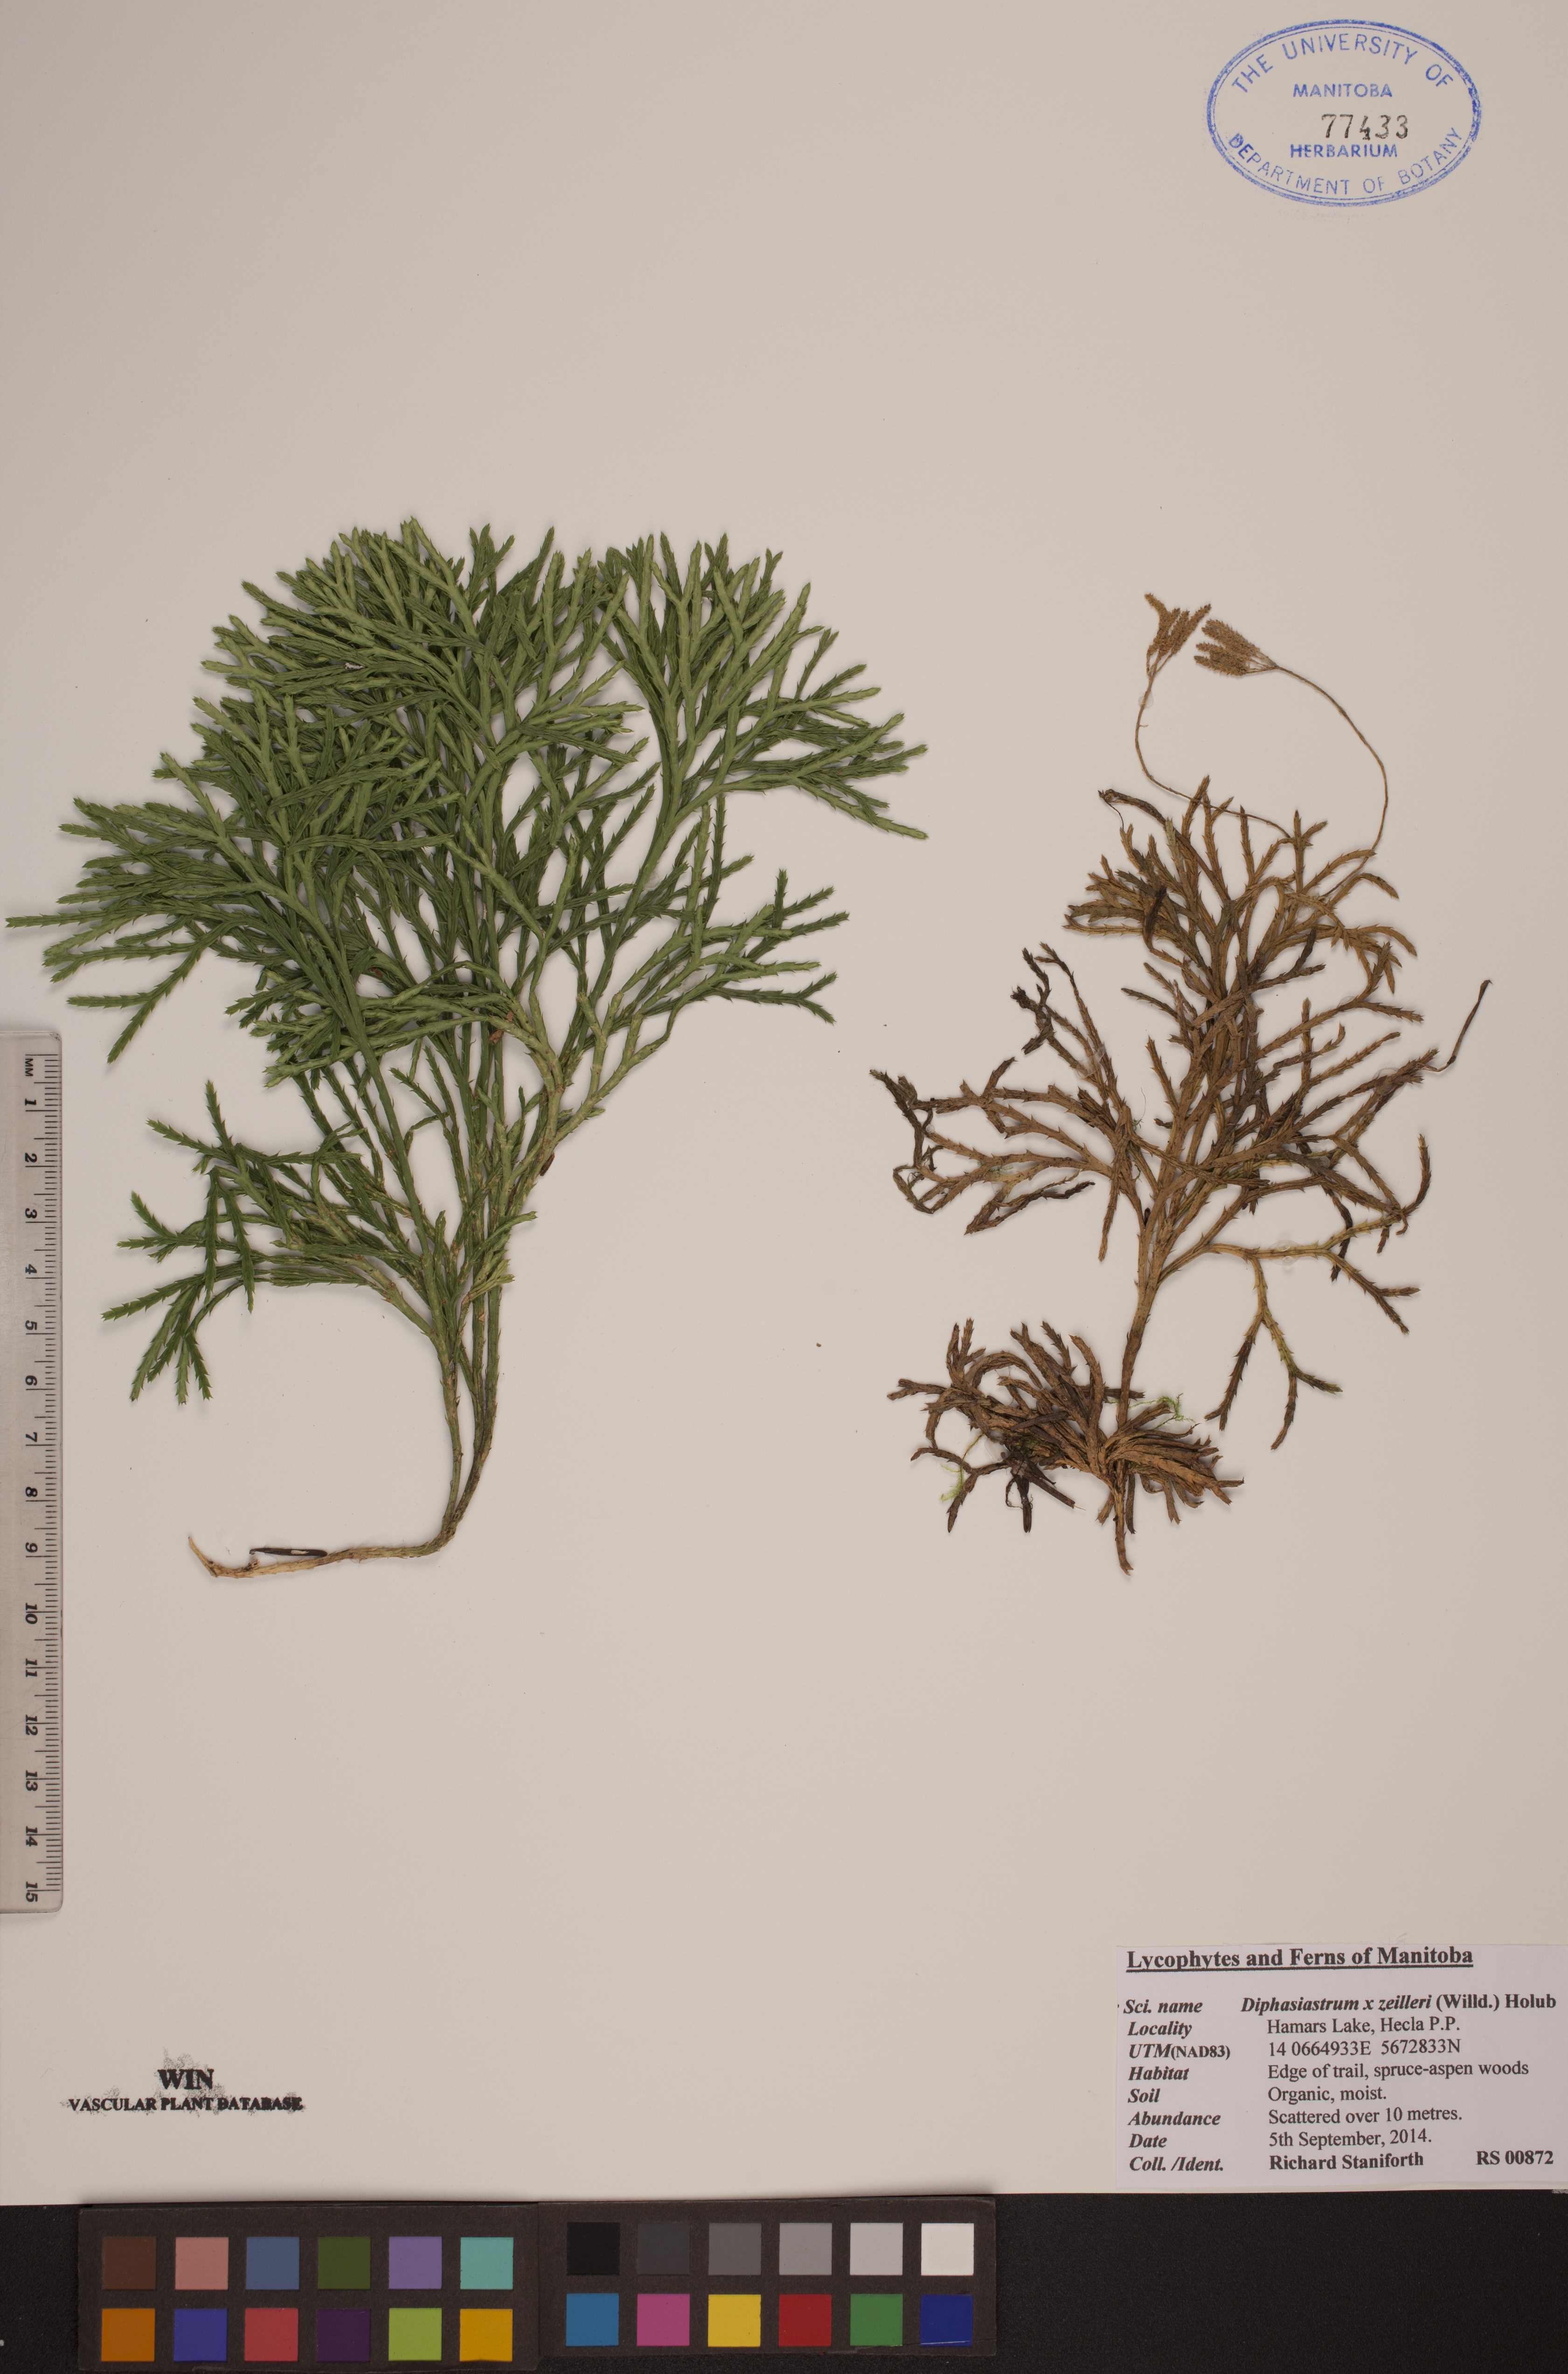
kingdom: Plantae
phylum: Tracheophyta
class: Lycopodiopsida
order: Lycopodiales
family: Lycopodiaceae
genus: Diphasiastrum
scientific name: Diphasiastrum zeilleri
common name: Zeiller's clubmoss
